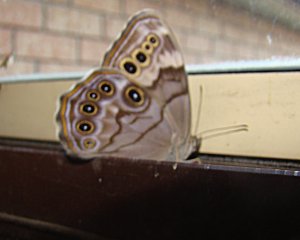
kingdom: Animalia
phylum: Arthropoda
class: Insecta
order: Lepidoptera
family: Nymphalidae
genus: Lethe
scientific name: Lethe anthedon
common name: Northern Pearly-Eye
